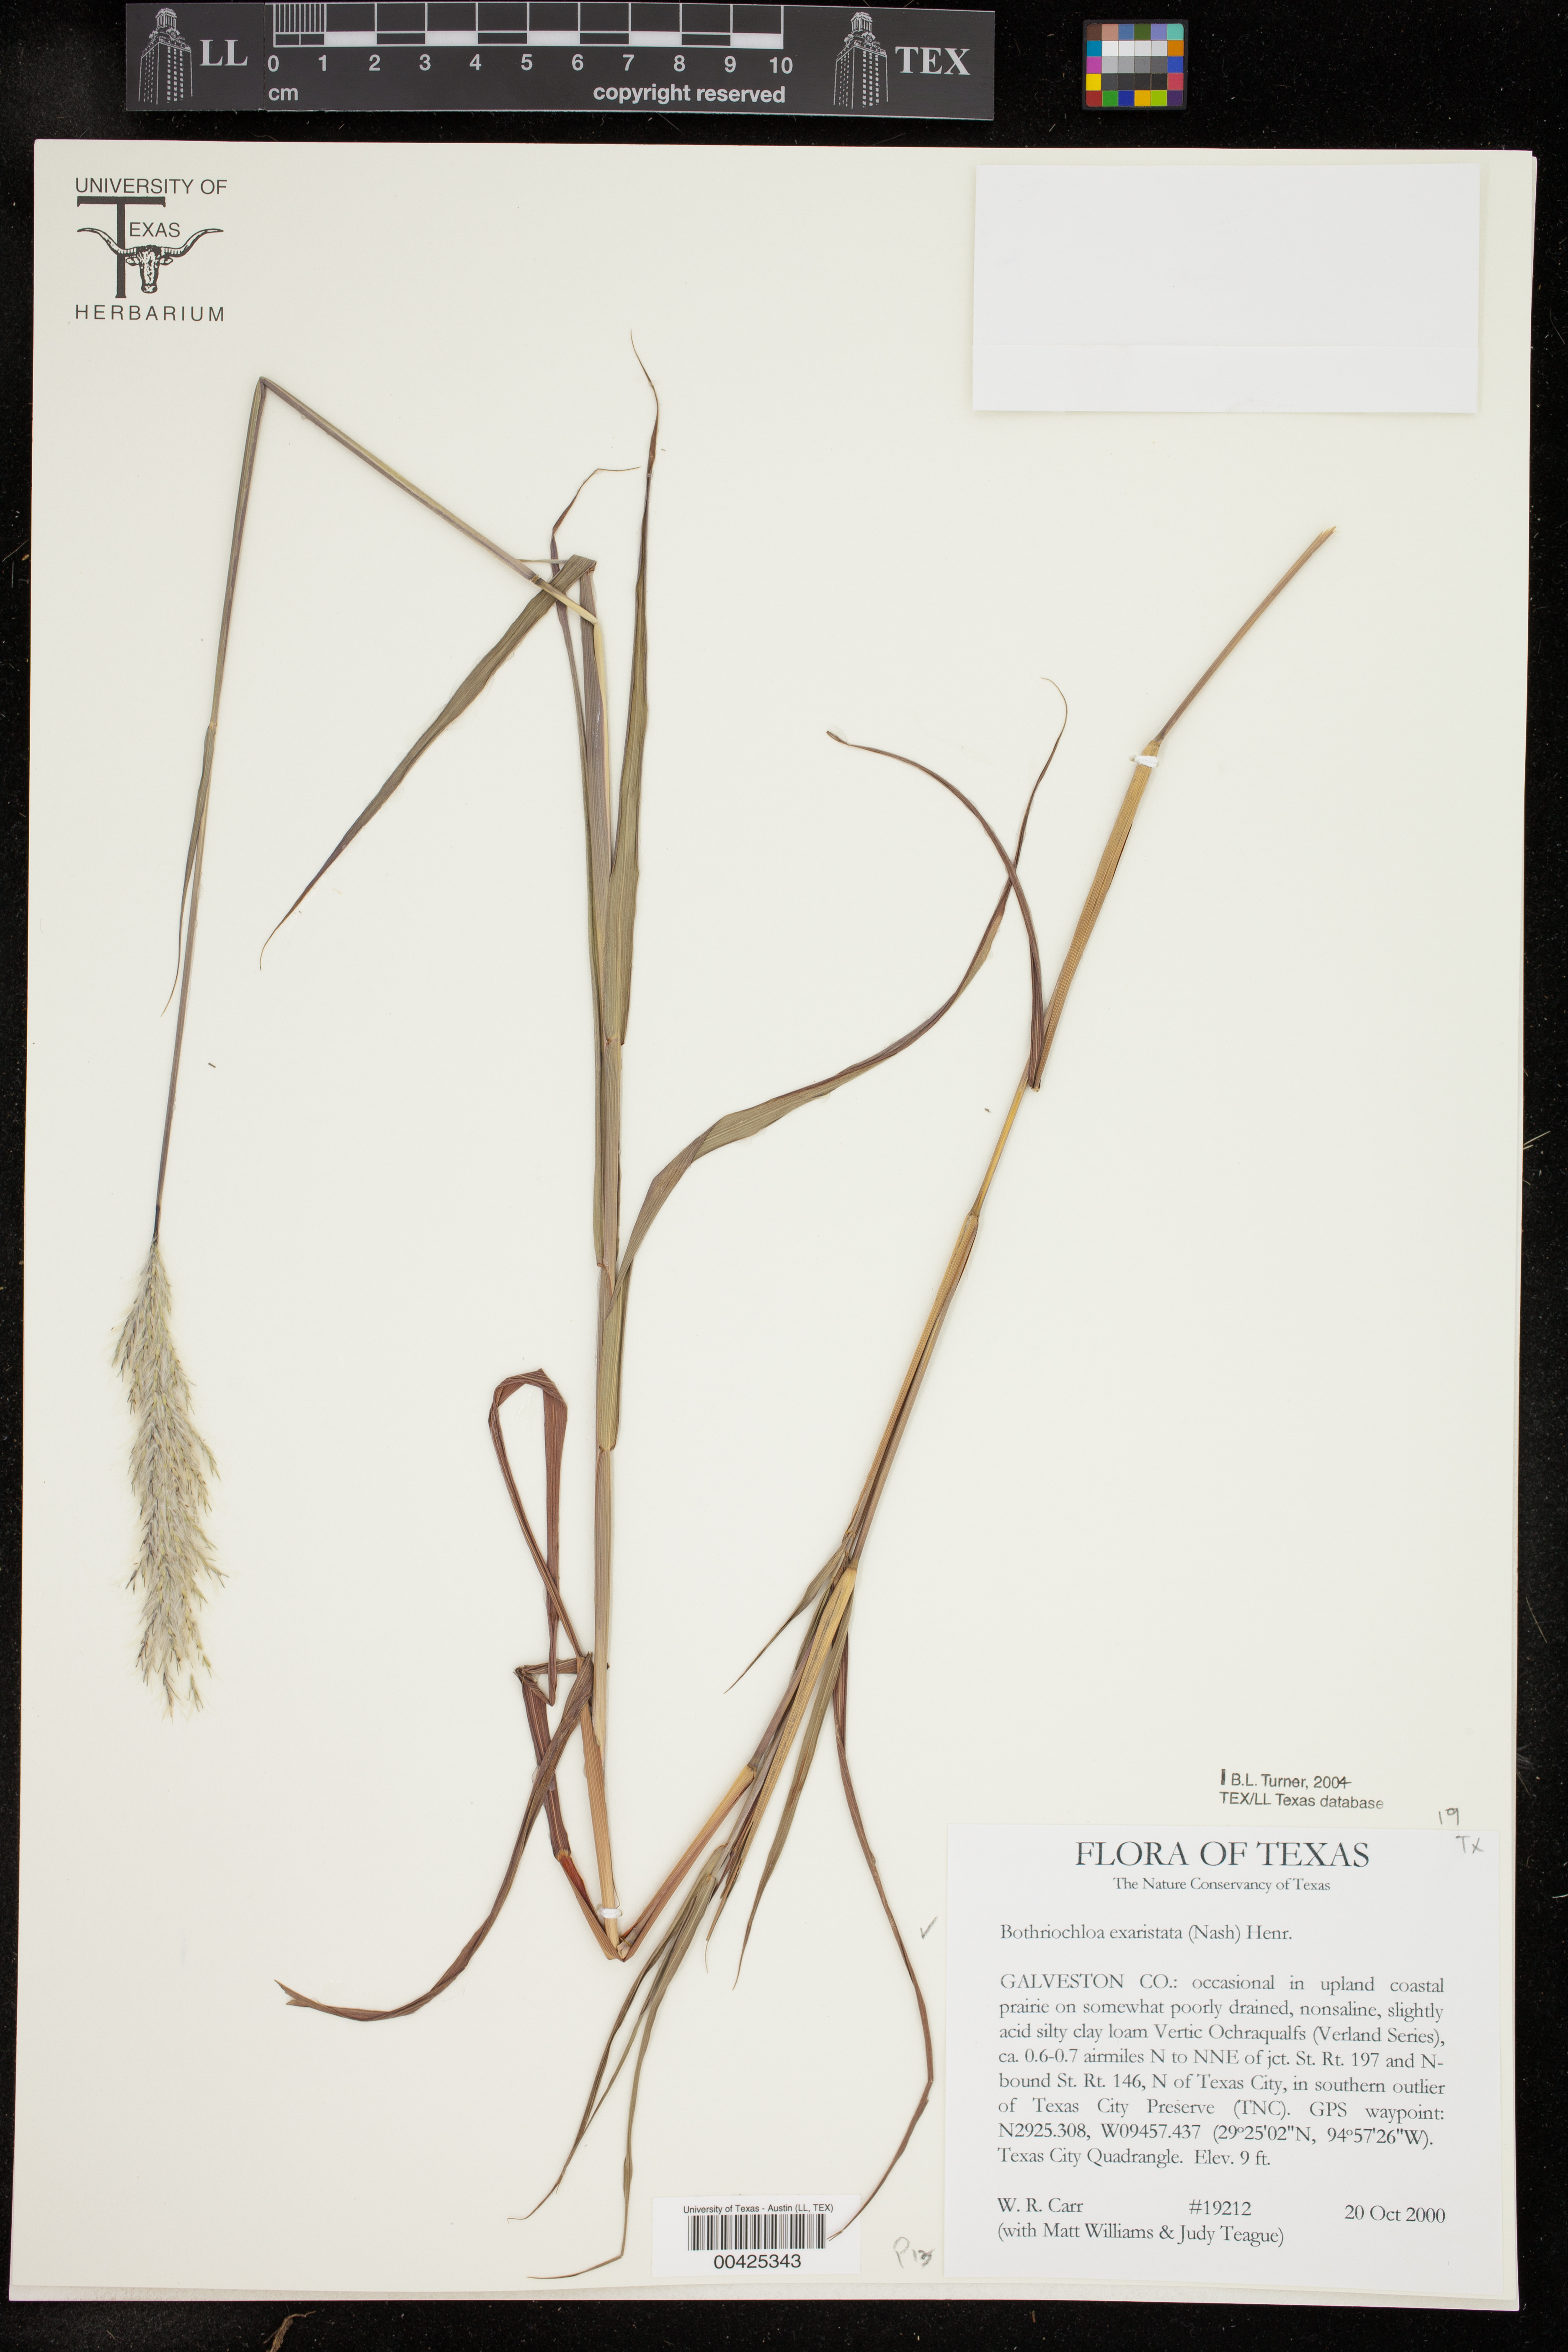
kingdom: Plantae
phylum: Tracheophyta
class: Liliopsida
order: Poales
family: Poaceae
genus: Bothriochloa
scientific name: Bothriochloa exaristata
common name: Awnless bluestem
